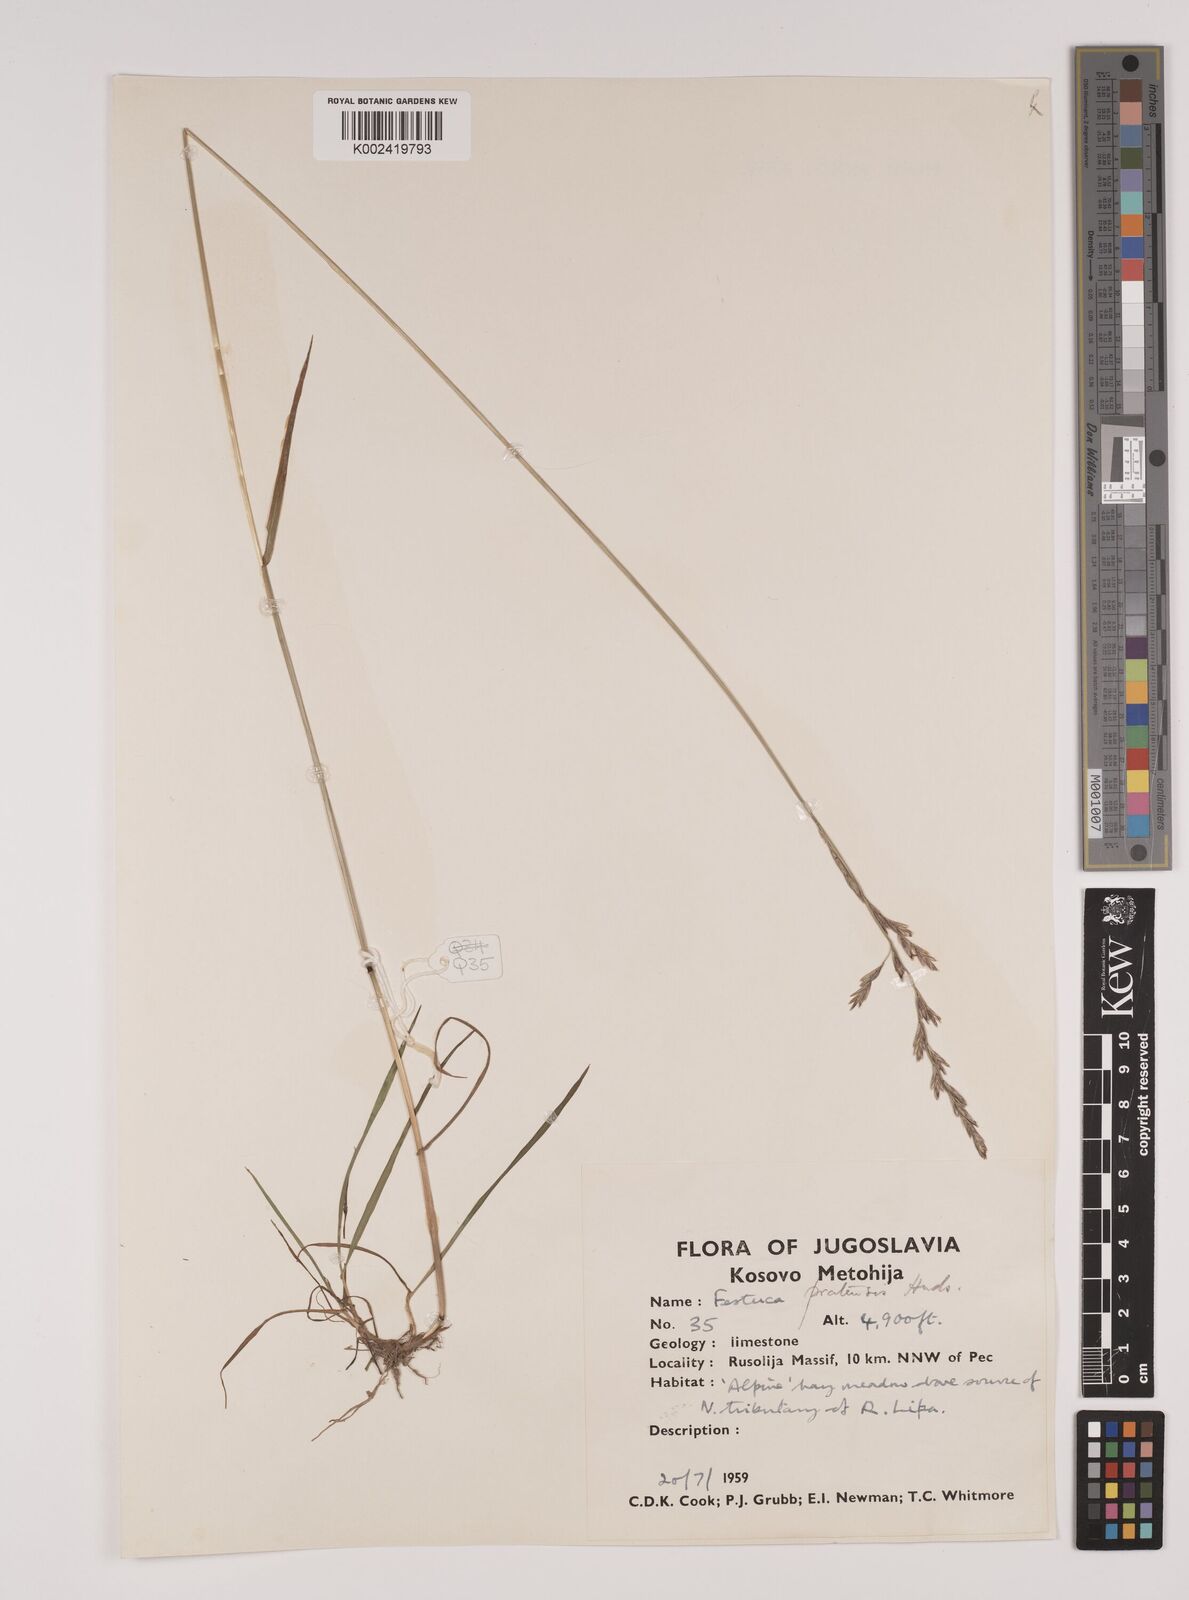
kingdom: Plantae
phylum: Tracheophyta
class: Liliopsida
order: Poales
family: Poaceae
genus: Festuca
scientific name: Festuca
